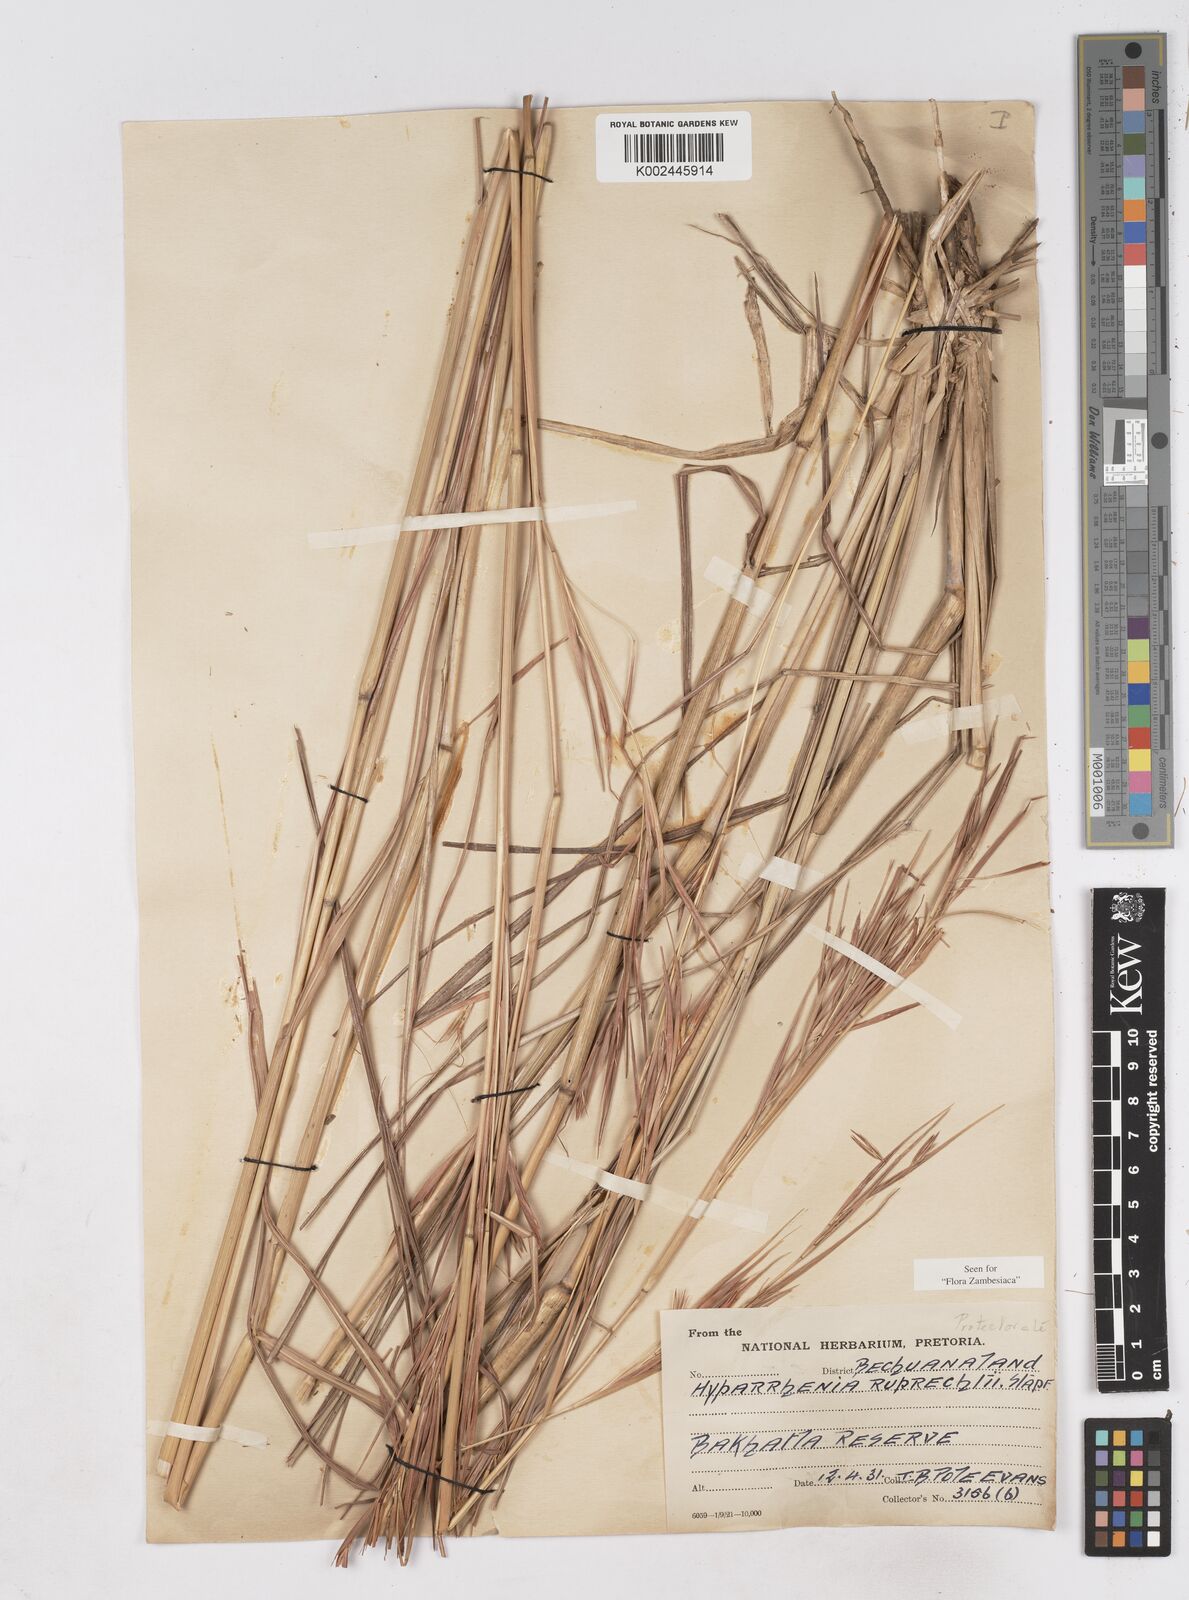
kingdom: Plantae
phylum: Tracheophyta
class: Liliopsida
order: Poales
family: Poaceae
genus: Hyperthelia
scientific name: Hyperthelia dissoluta
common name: Yellow thatching grass
